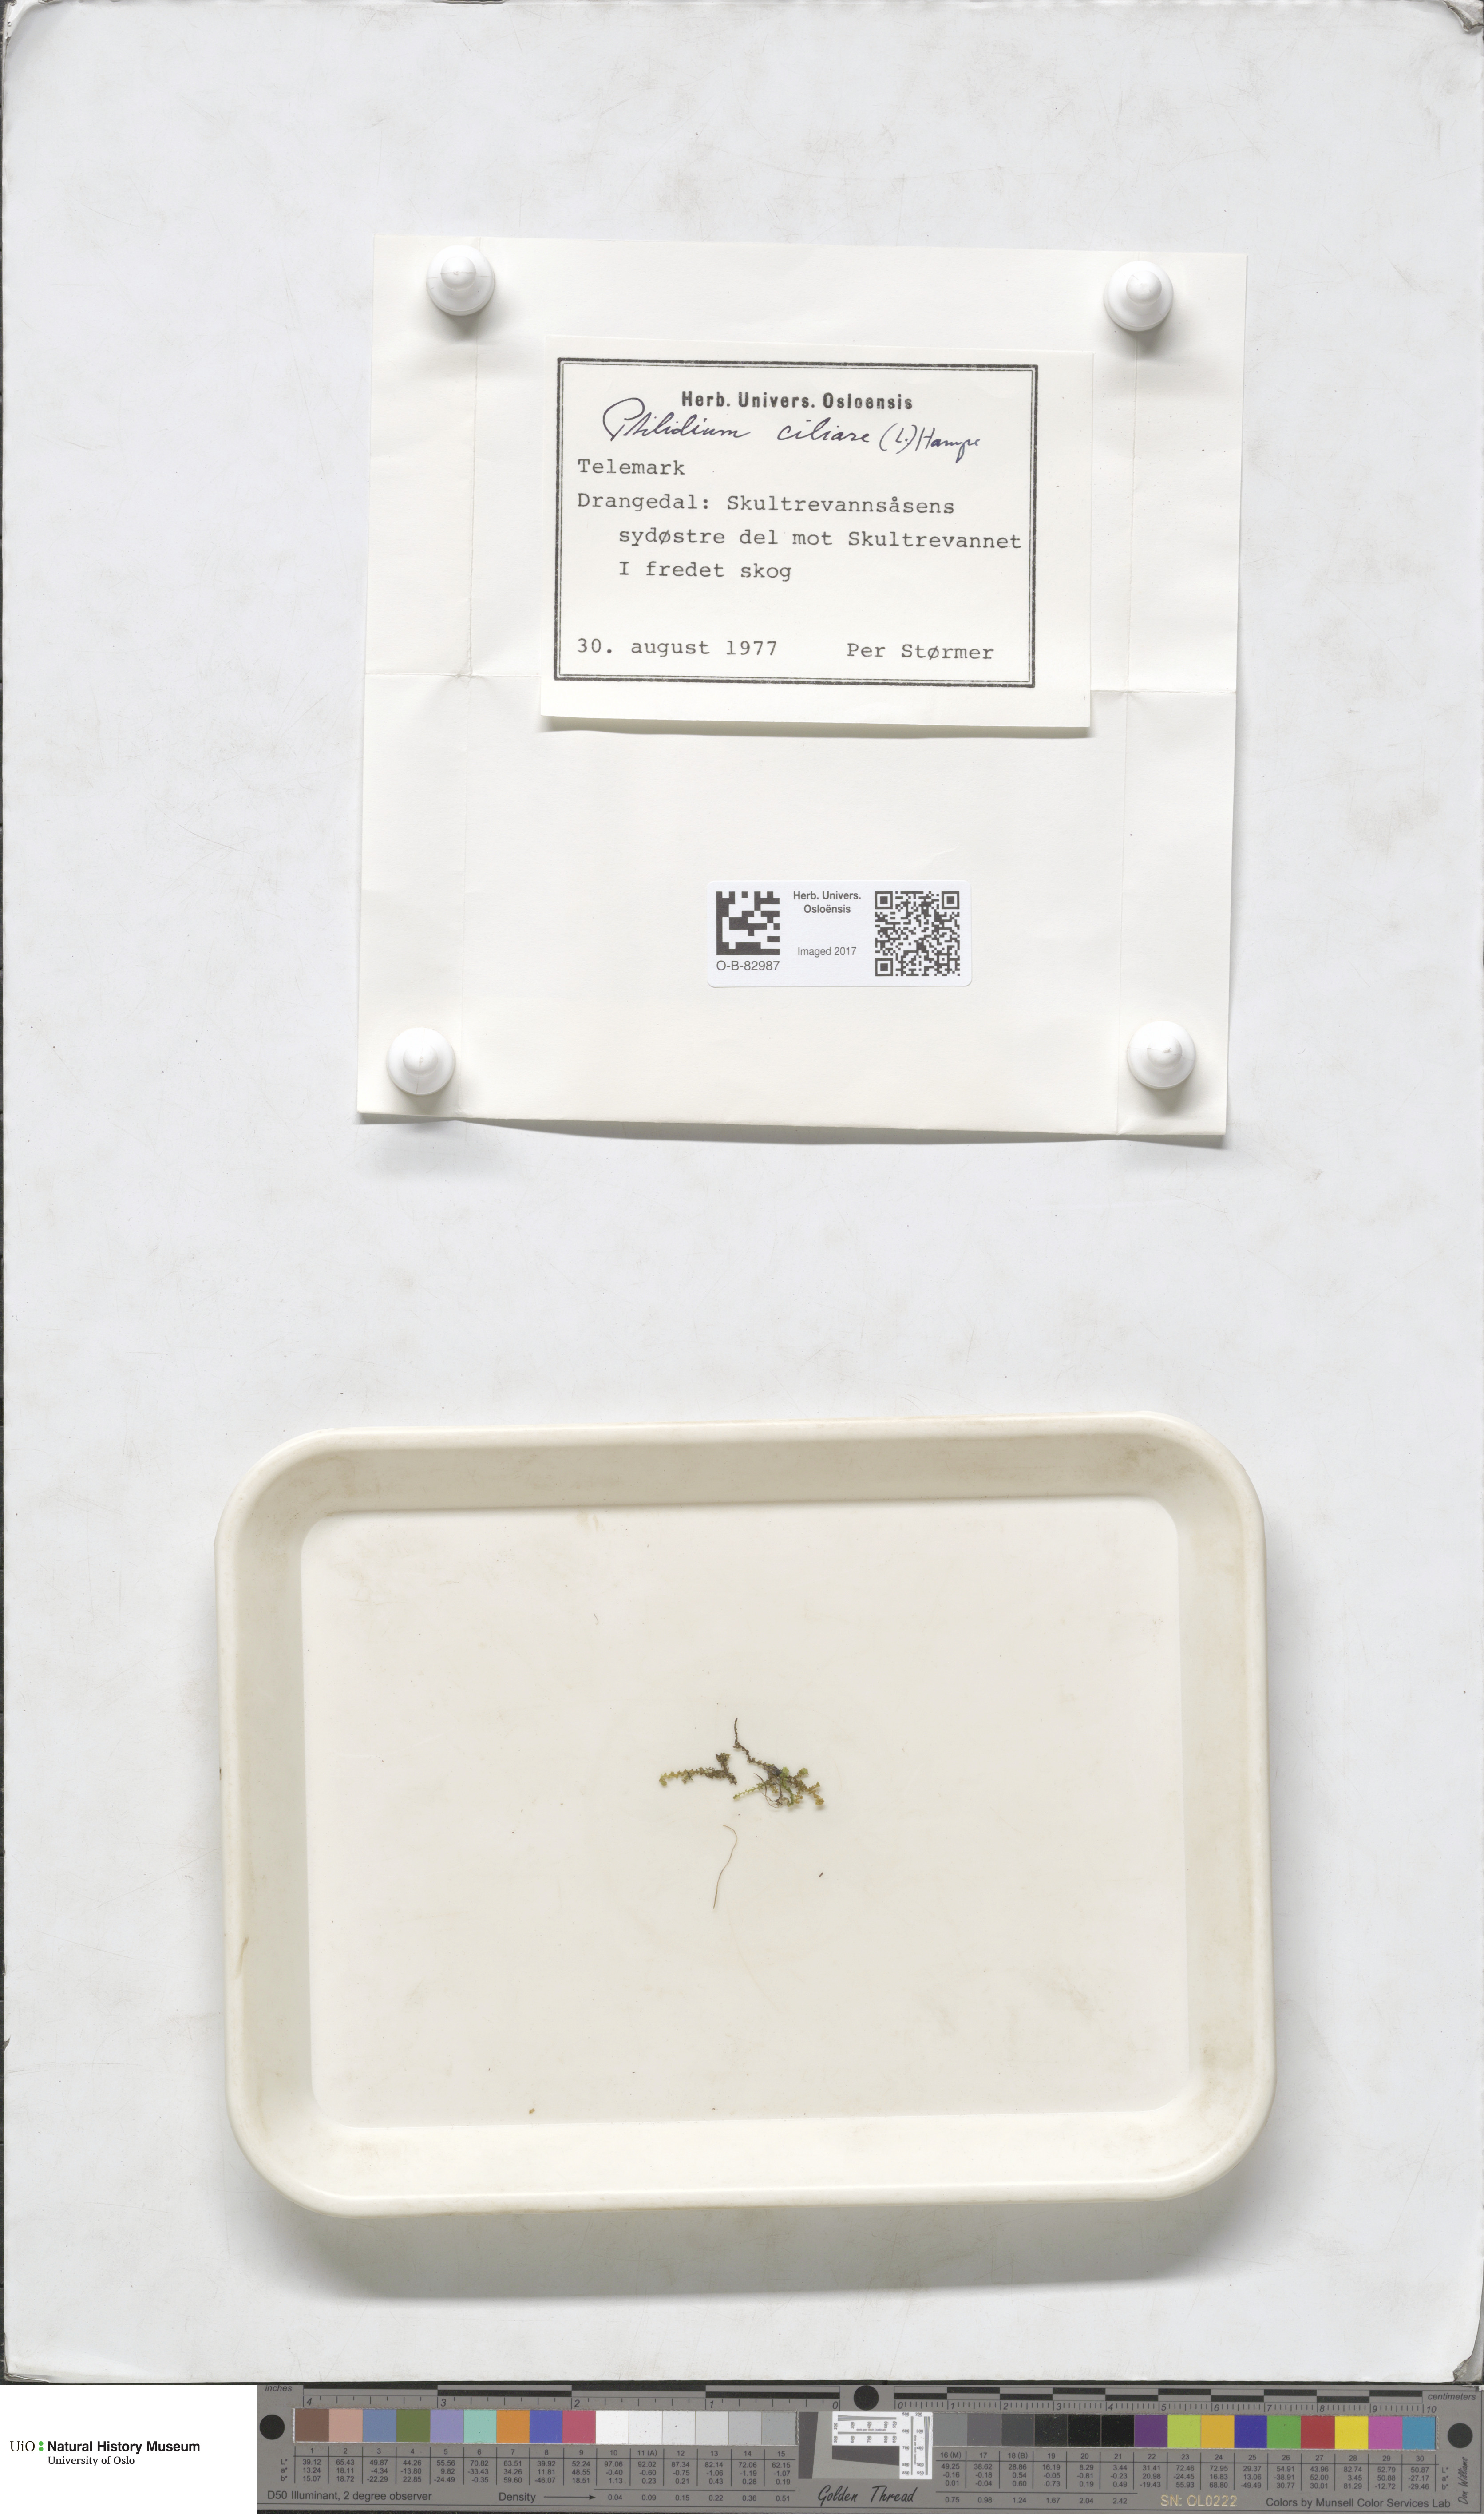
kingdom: Plantae
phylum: Marchantiophyta
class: Jungermanniopsida
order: Ptilidiales
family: Ptilidiaceae
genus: Ptilidium
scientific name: Ptilidium ciliare
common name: Ciliate fringewort
